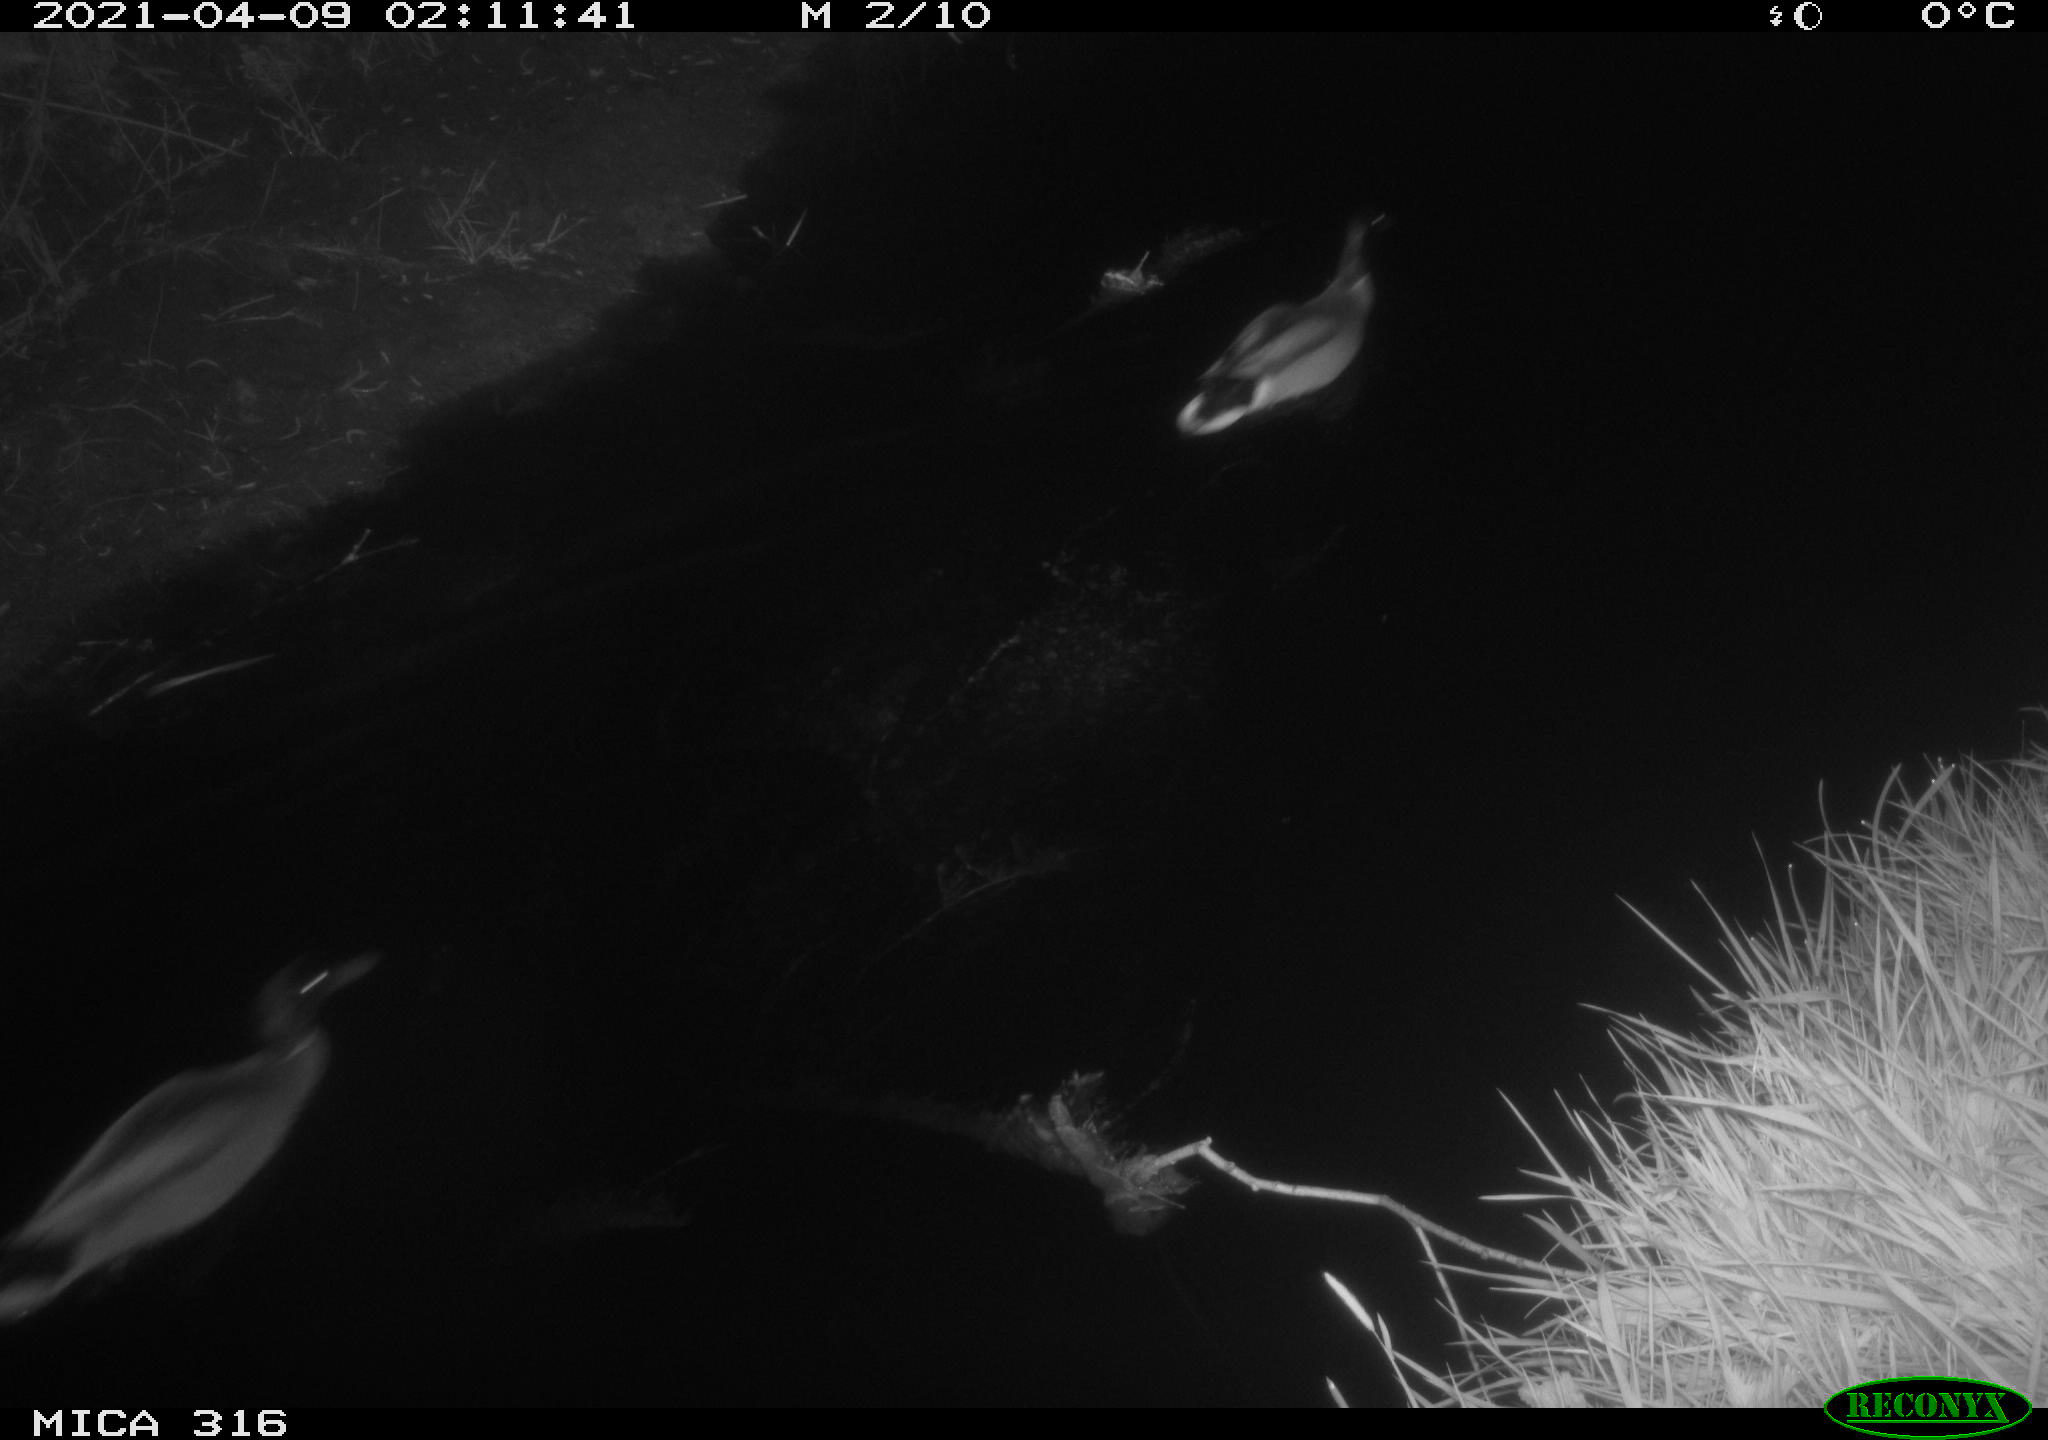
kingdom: Animalia
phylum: Chordata
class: Aves
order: Anseriformes
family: Anatidae
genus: Anas
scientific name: Anas platyrhynchos
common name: Mallard
